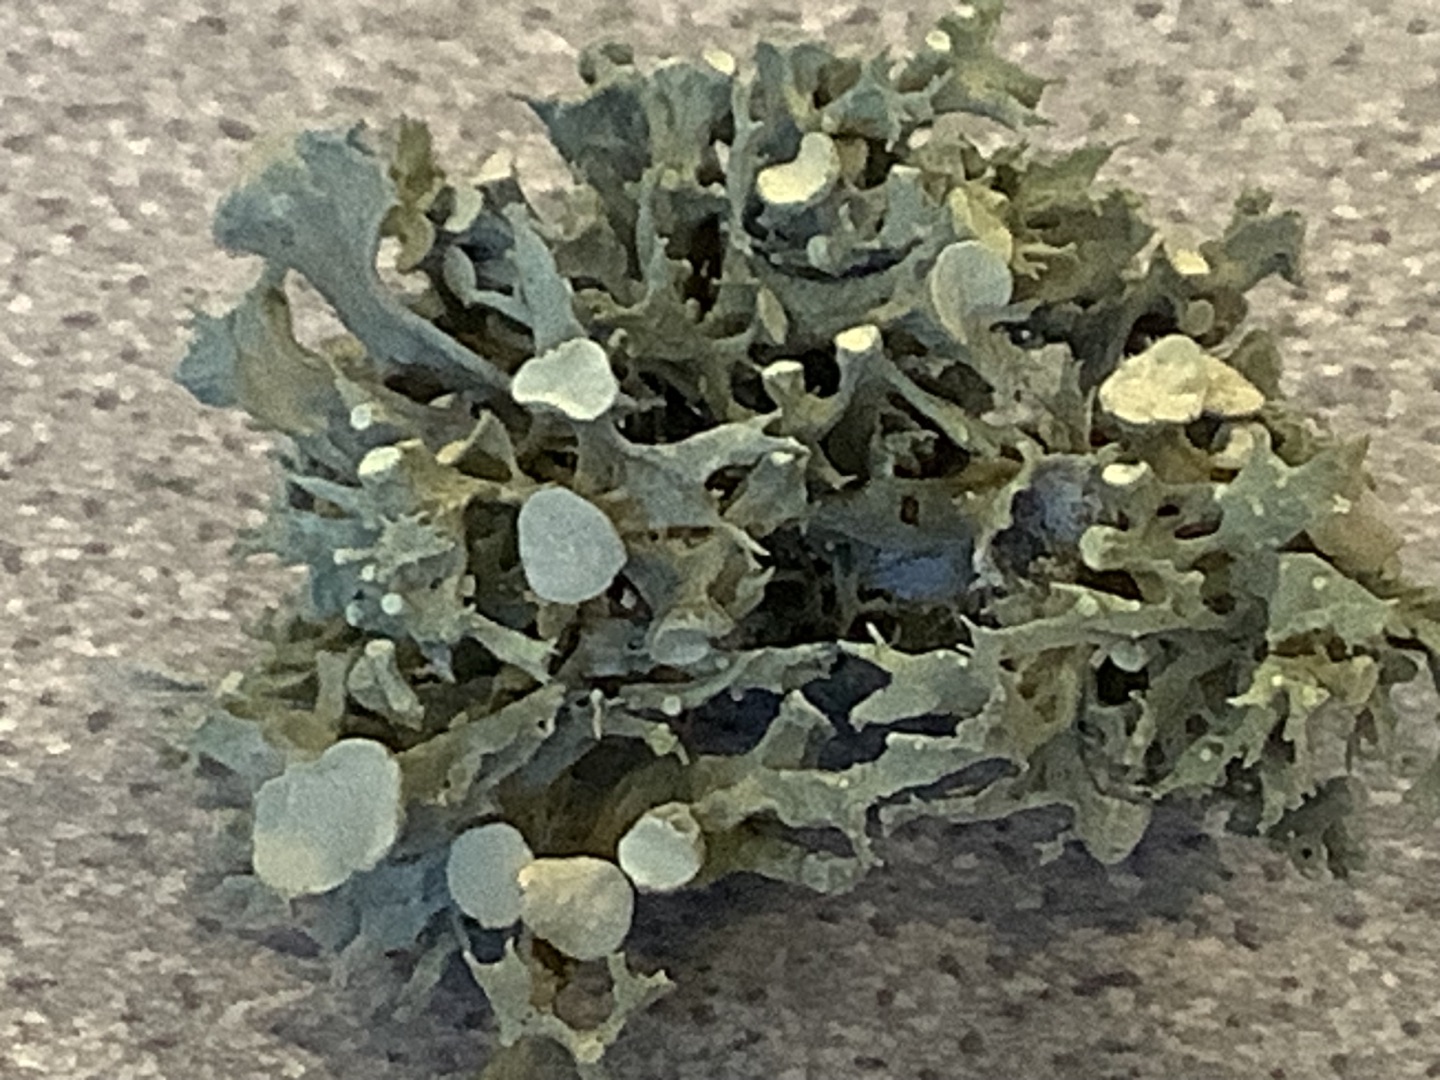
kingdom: Fungi
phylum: Ascomycota
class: Lecanoromycetes
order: Lecanorales
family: Ramalinaceae
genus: Ramalina
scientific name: Ramalina fastigiata
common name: Tue-grenlav
